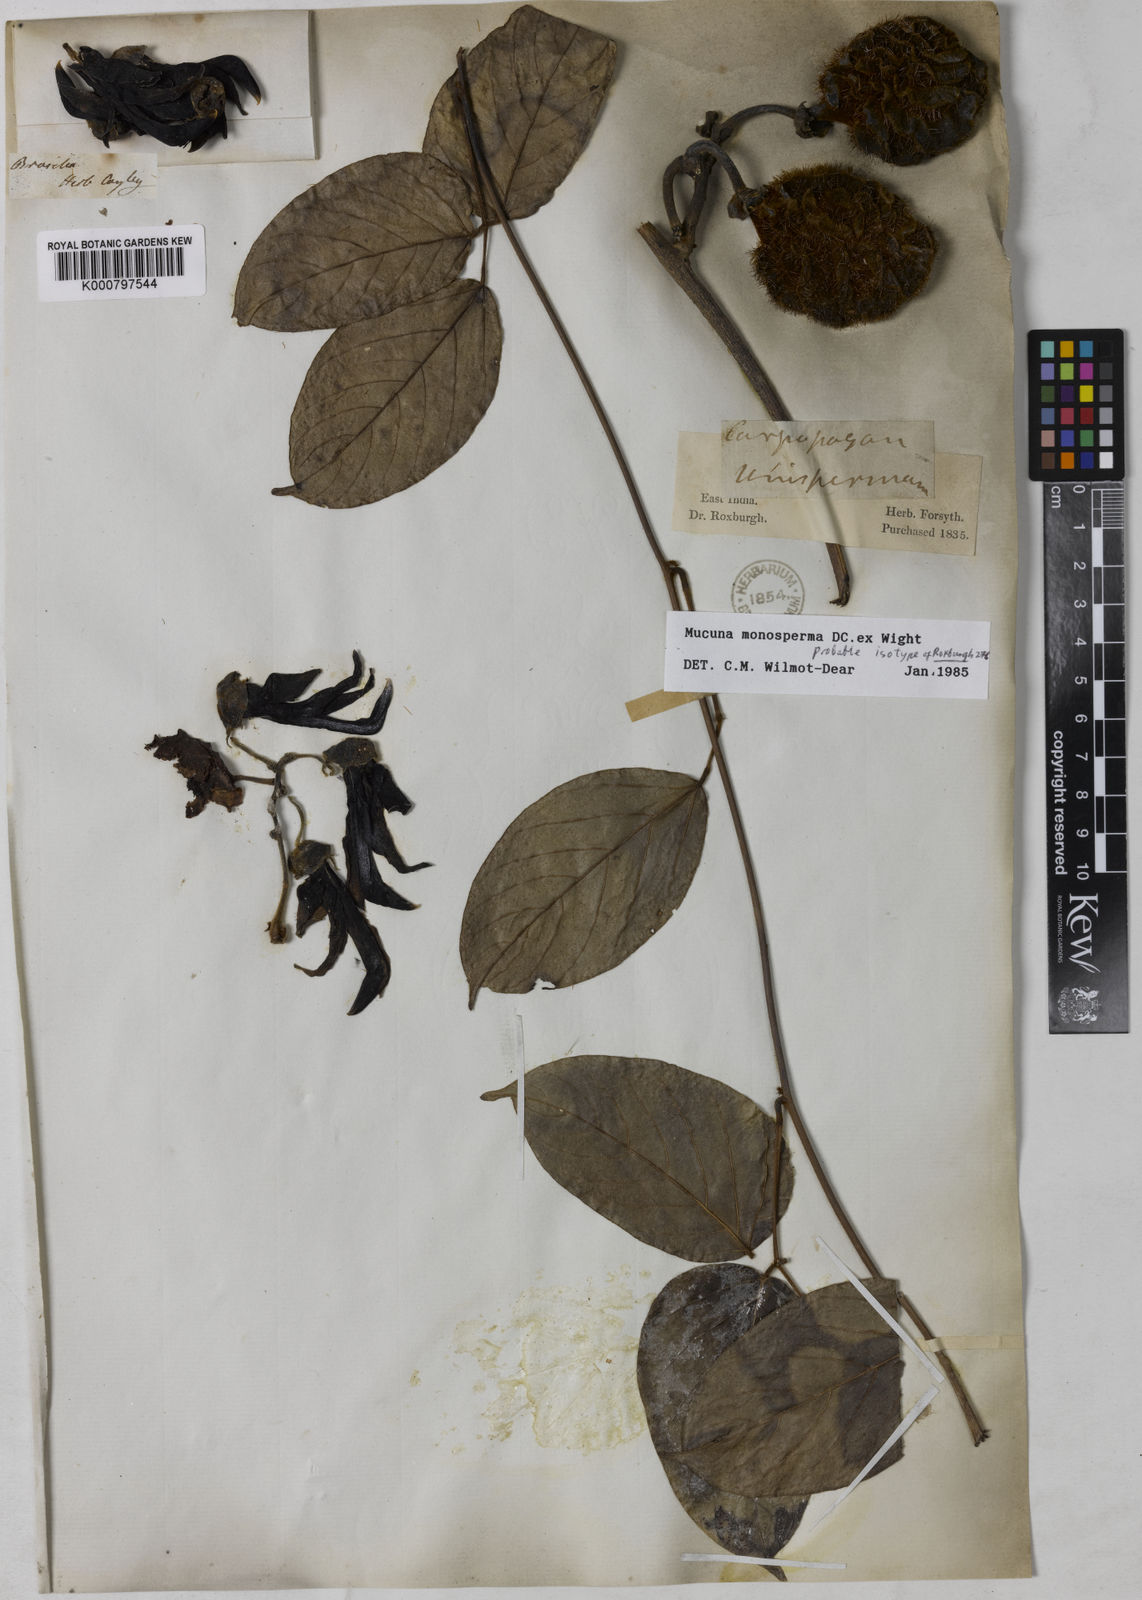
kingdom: Plantae
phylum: Tracheophyta
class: Magnoliopsida
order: Fabales
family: Fabaceae
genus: Mucuna
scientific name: Mucuna monosperma
